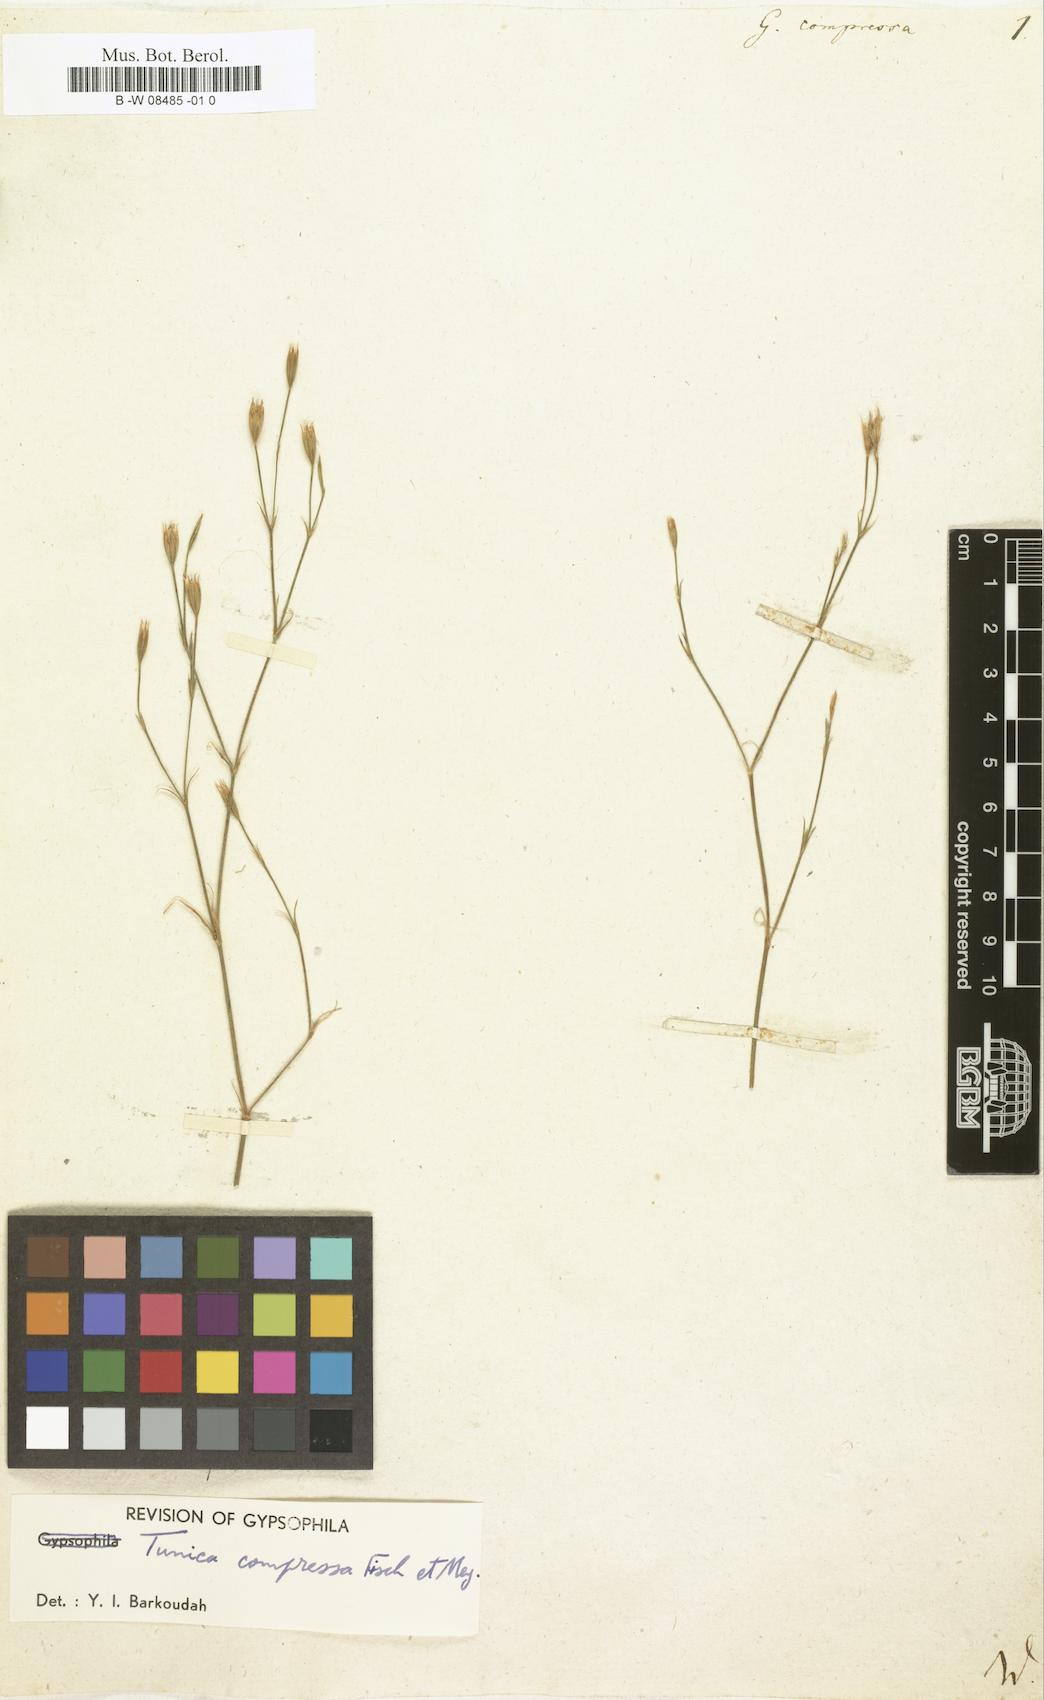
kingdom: Plantae
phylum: Tracheophyta
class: Magnoliopsida
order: Caryophyllales
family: Caryophyllaceae
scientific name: Caryophyllaceae
